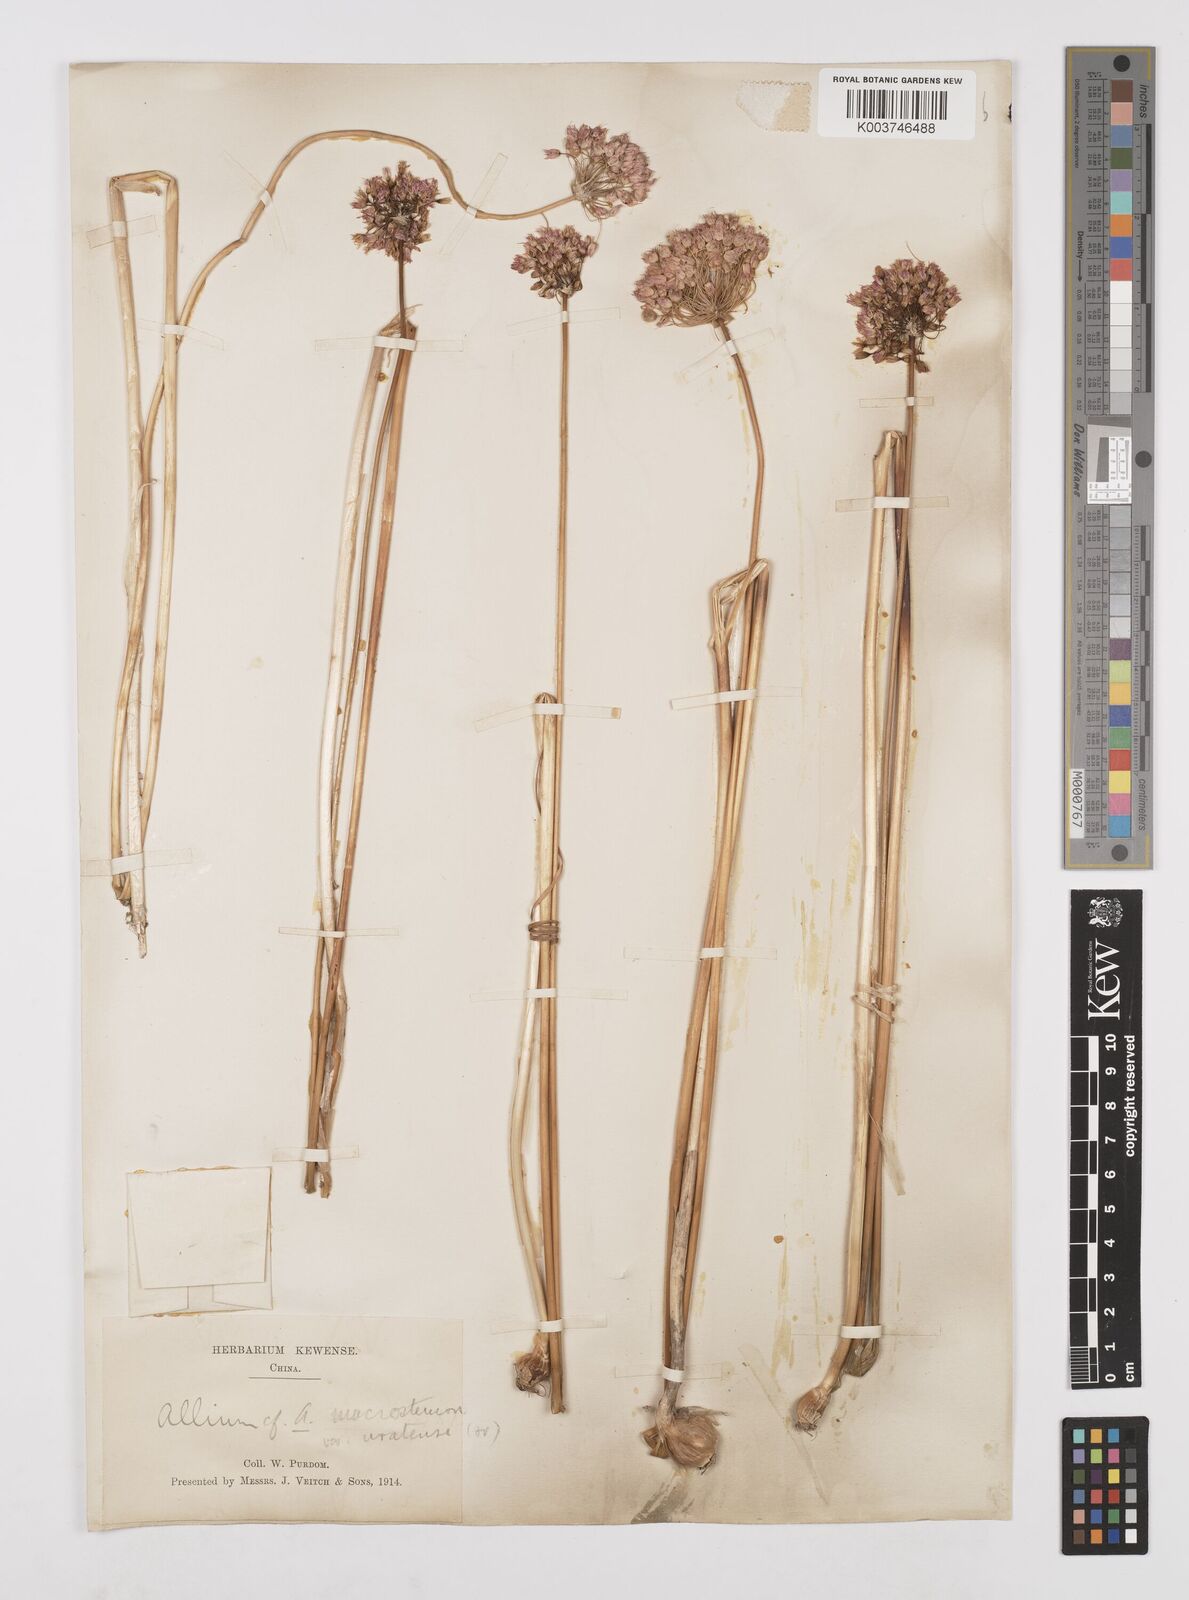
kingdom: Plantae
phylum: Tracheophyta
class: Liliopsida
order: Asparagales
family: Amaryllidaceae
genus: Allium
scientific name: Allium macrostemon
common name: Chinese garlic
